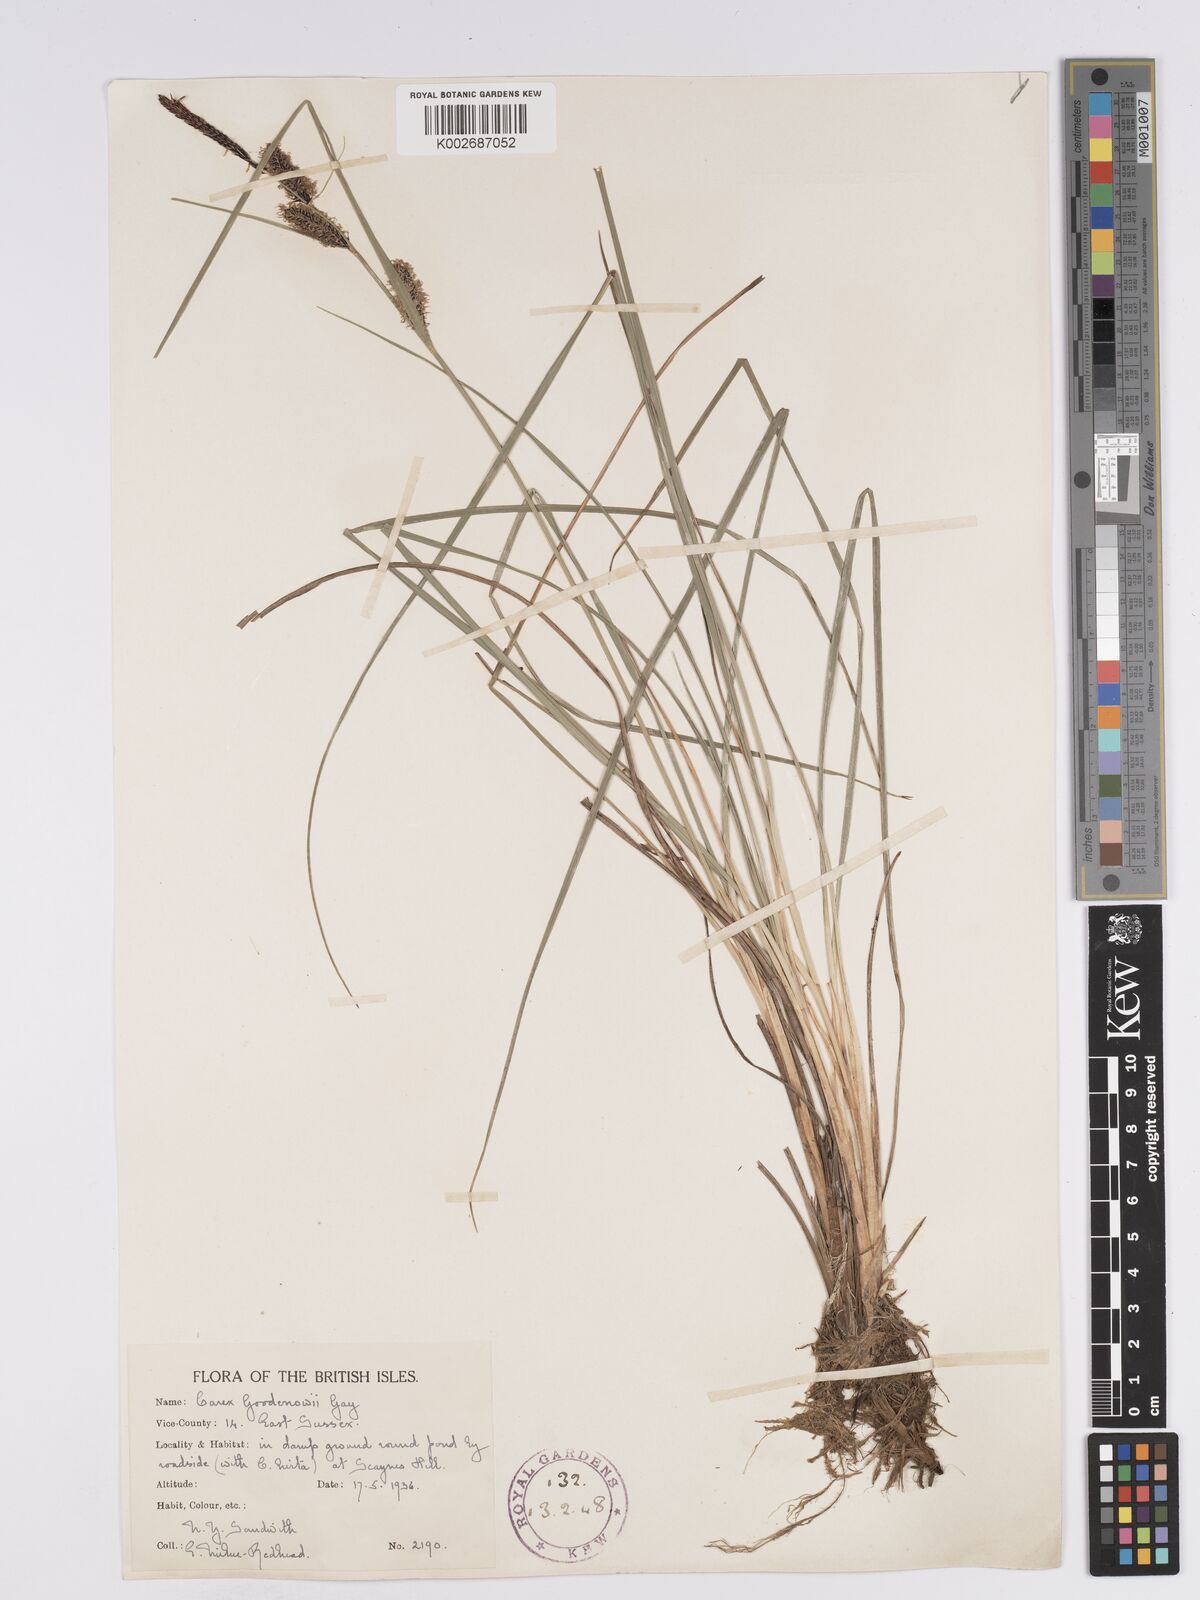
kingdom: Plantae
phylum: Tracheophyta
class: Liliopsida
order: Poales
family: Cyperaceae
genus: Carex
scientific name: Carex nigra
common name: Common sedge
